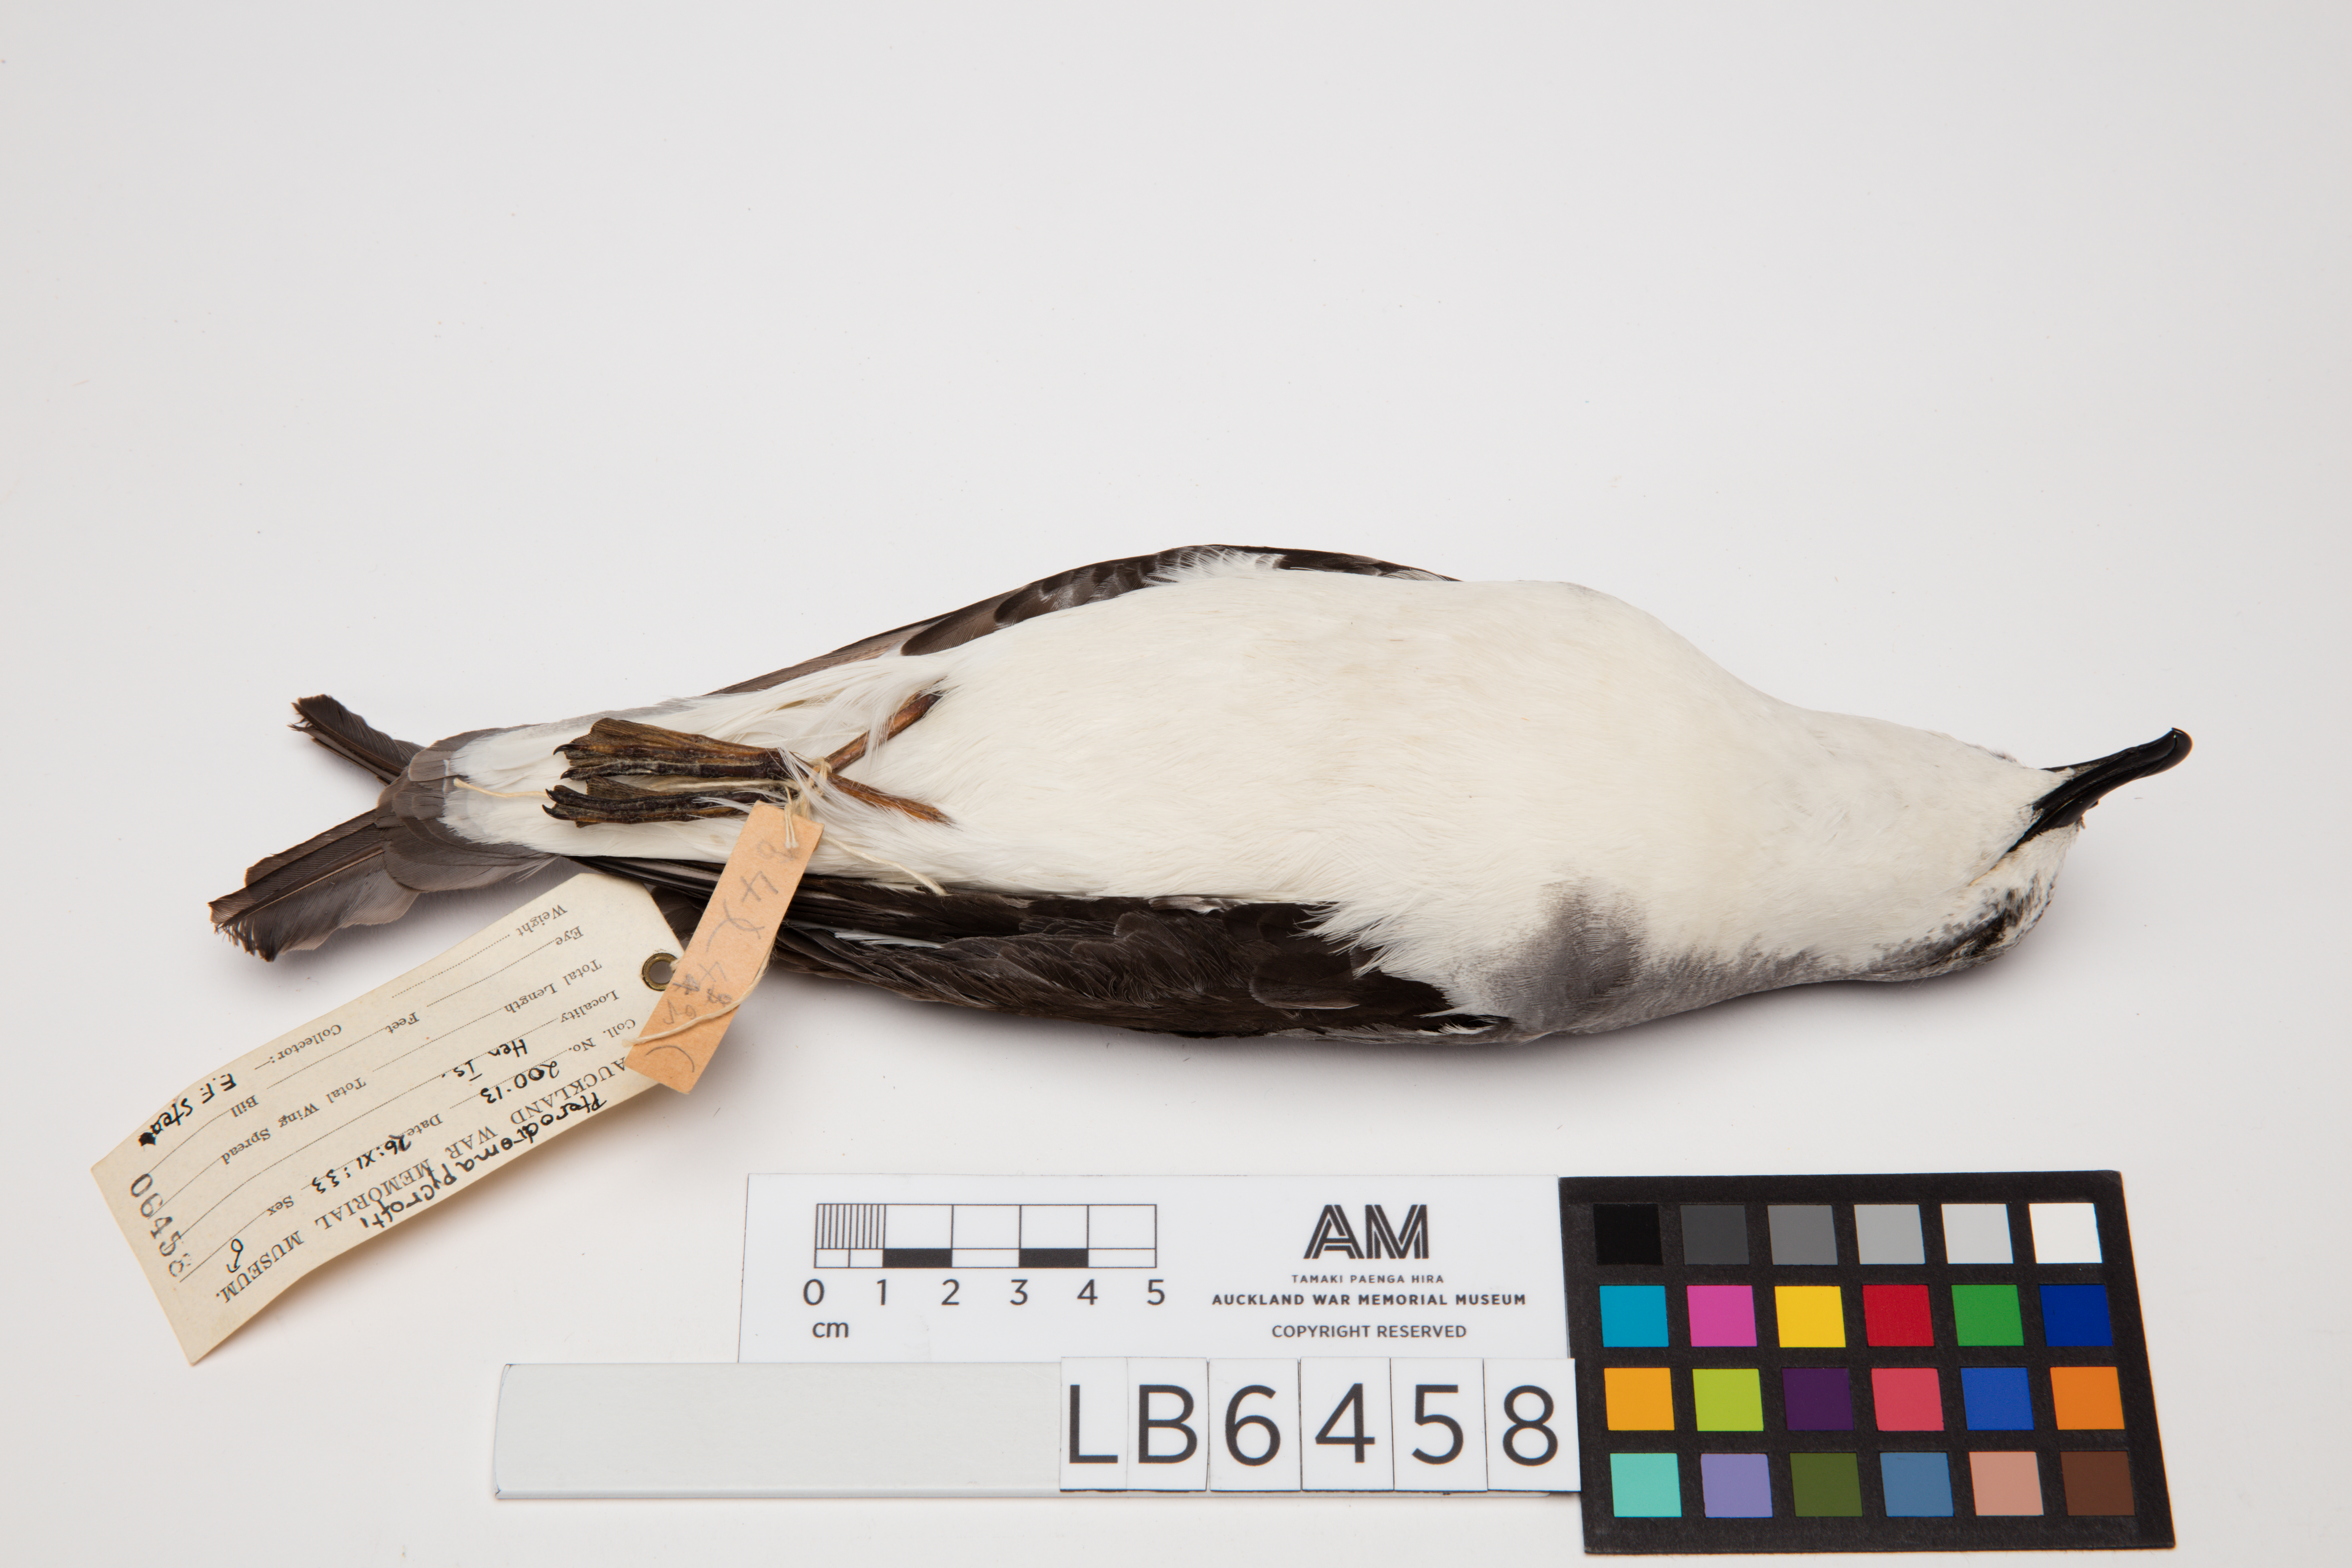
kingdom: Animalia
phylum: Chordata
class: Aves
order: Procellariiformes
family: Procellariidae
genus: Pterodroma
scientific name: Pterodroma pycrofti
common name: Pycroft's petrel
